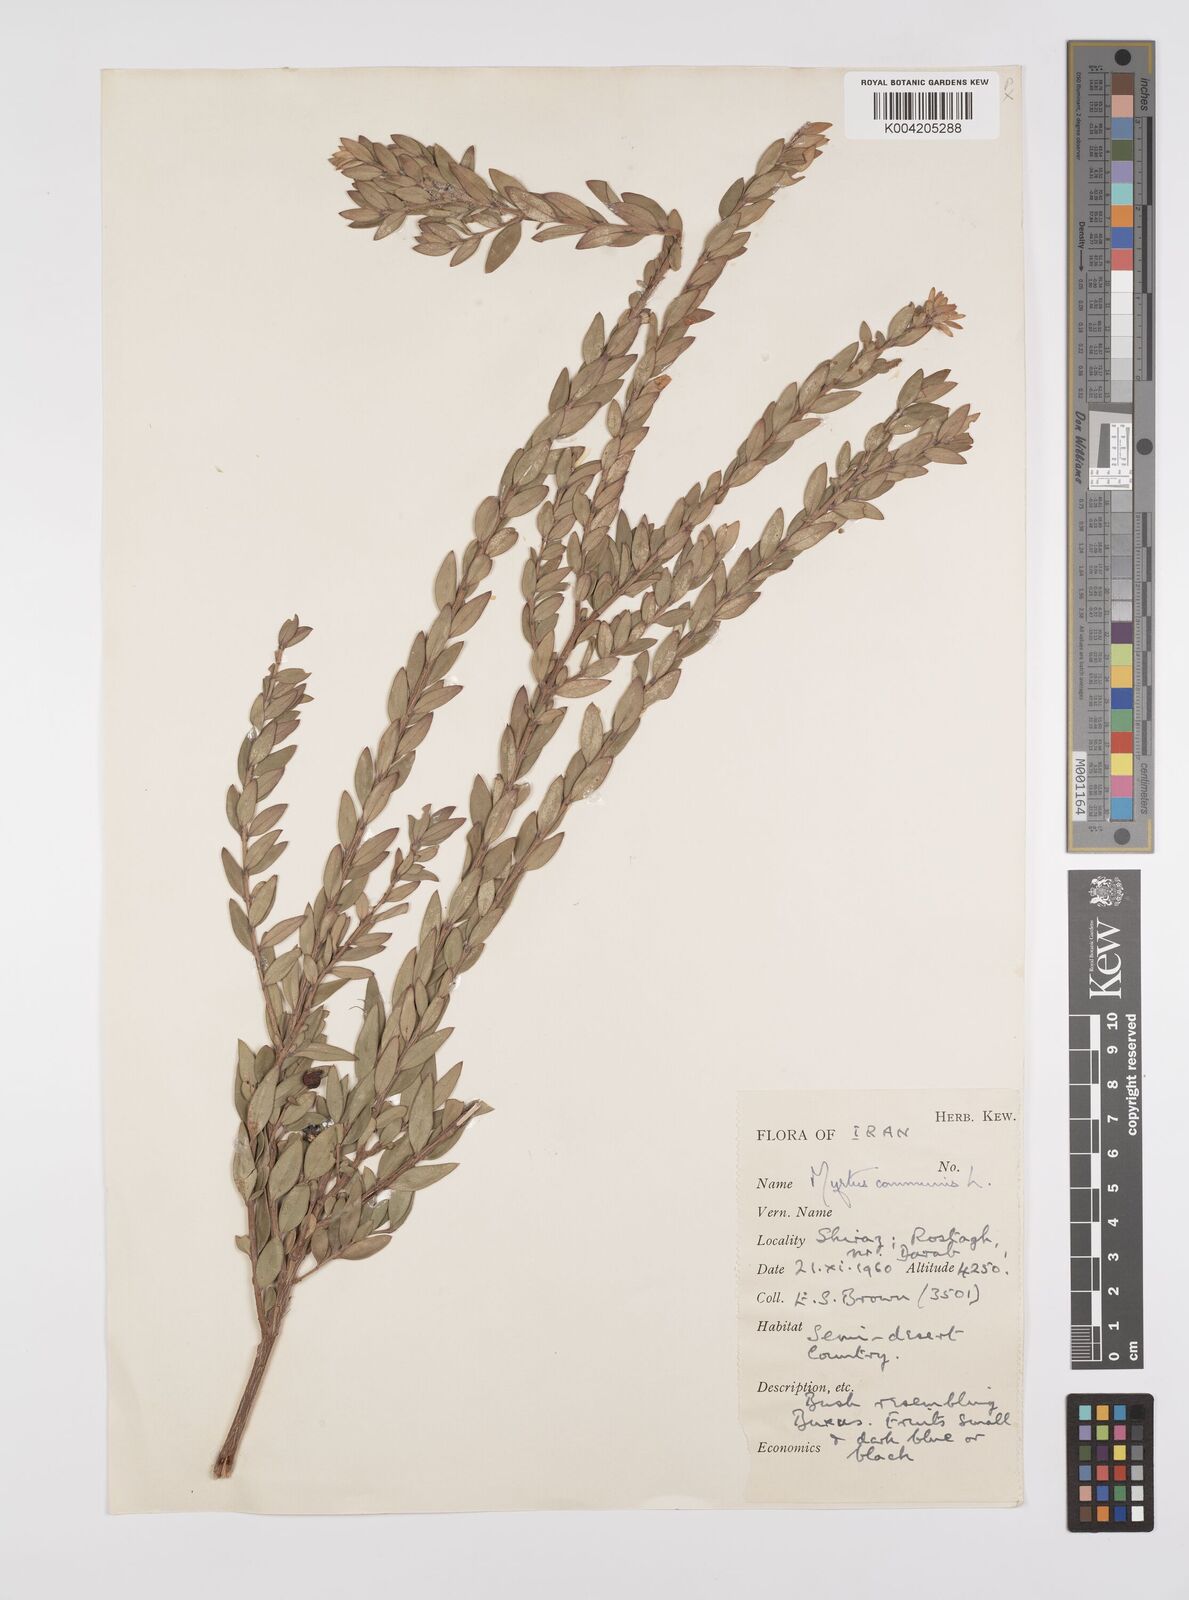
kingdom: Plantae
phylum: Tracheophyta
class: Magnoliopsida
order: Myrtales
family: Myrtaceae
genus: Myrtus
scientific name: Myrtus communis
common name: Myrtle
